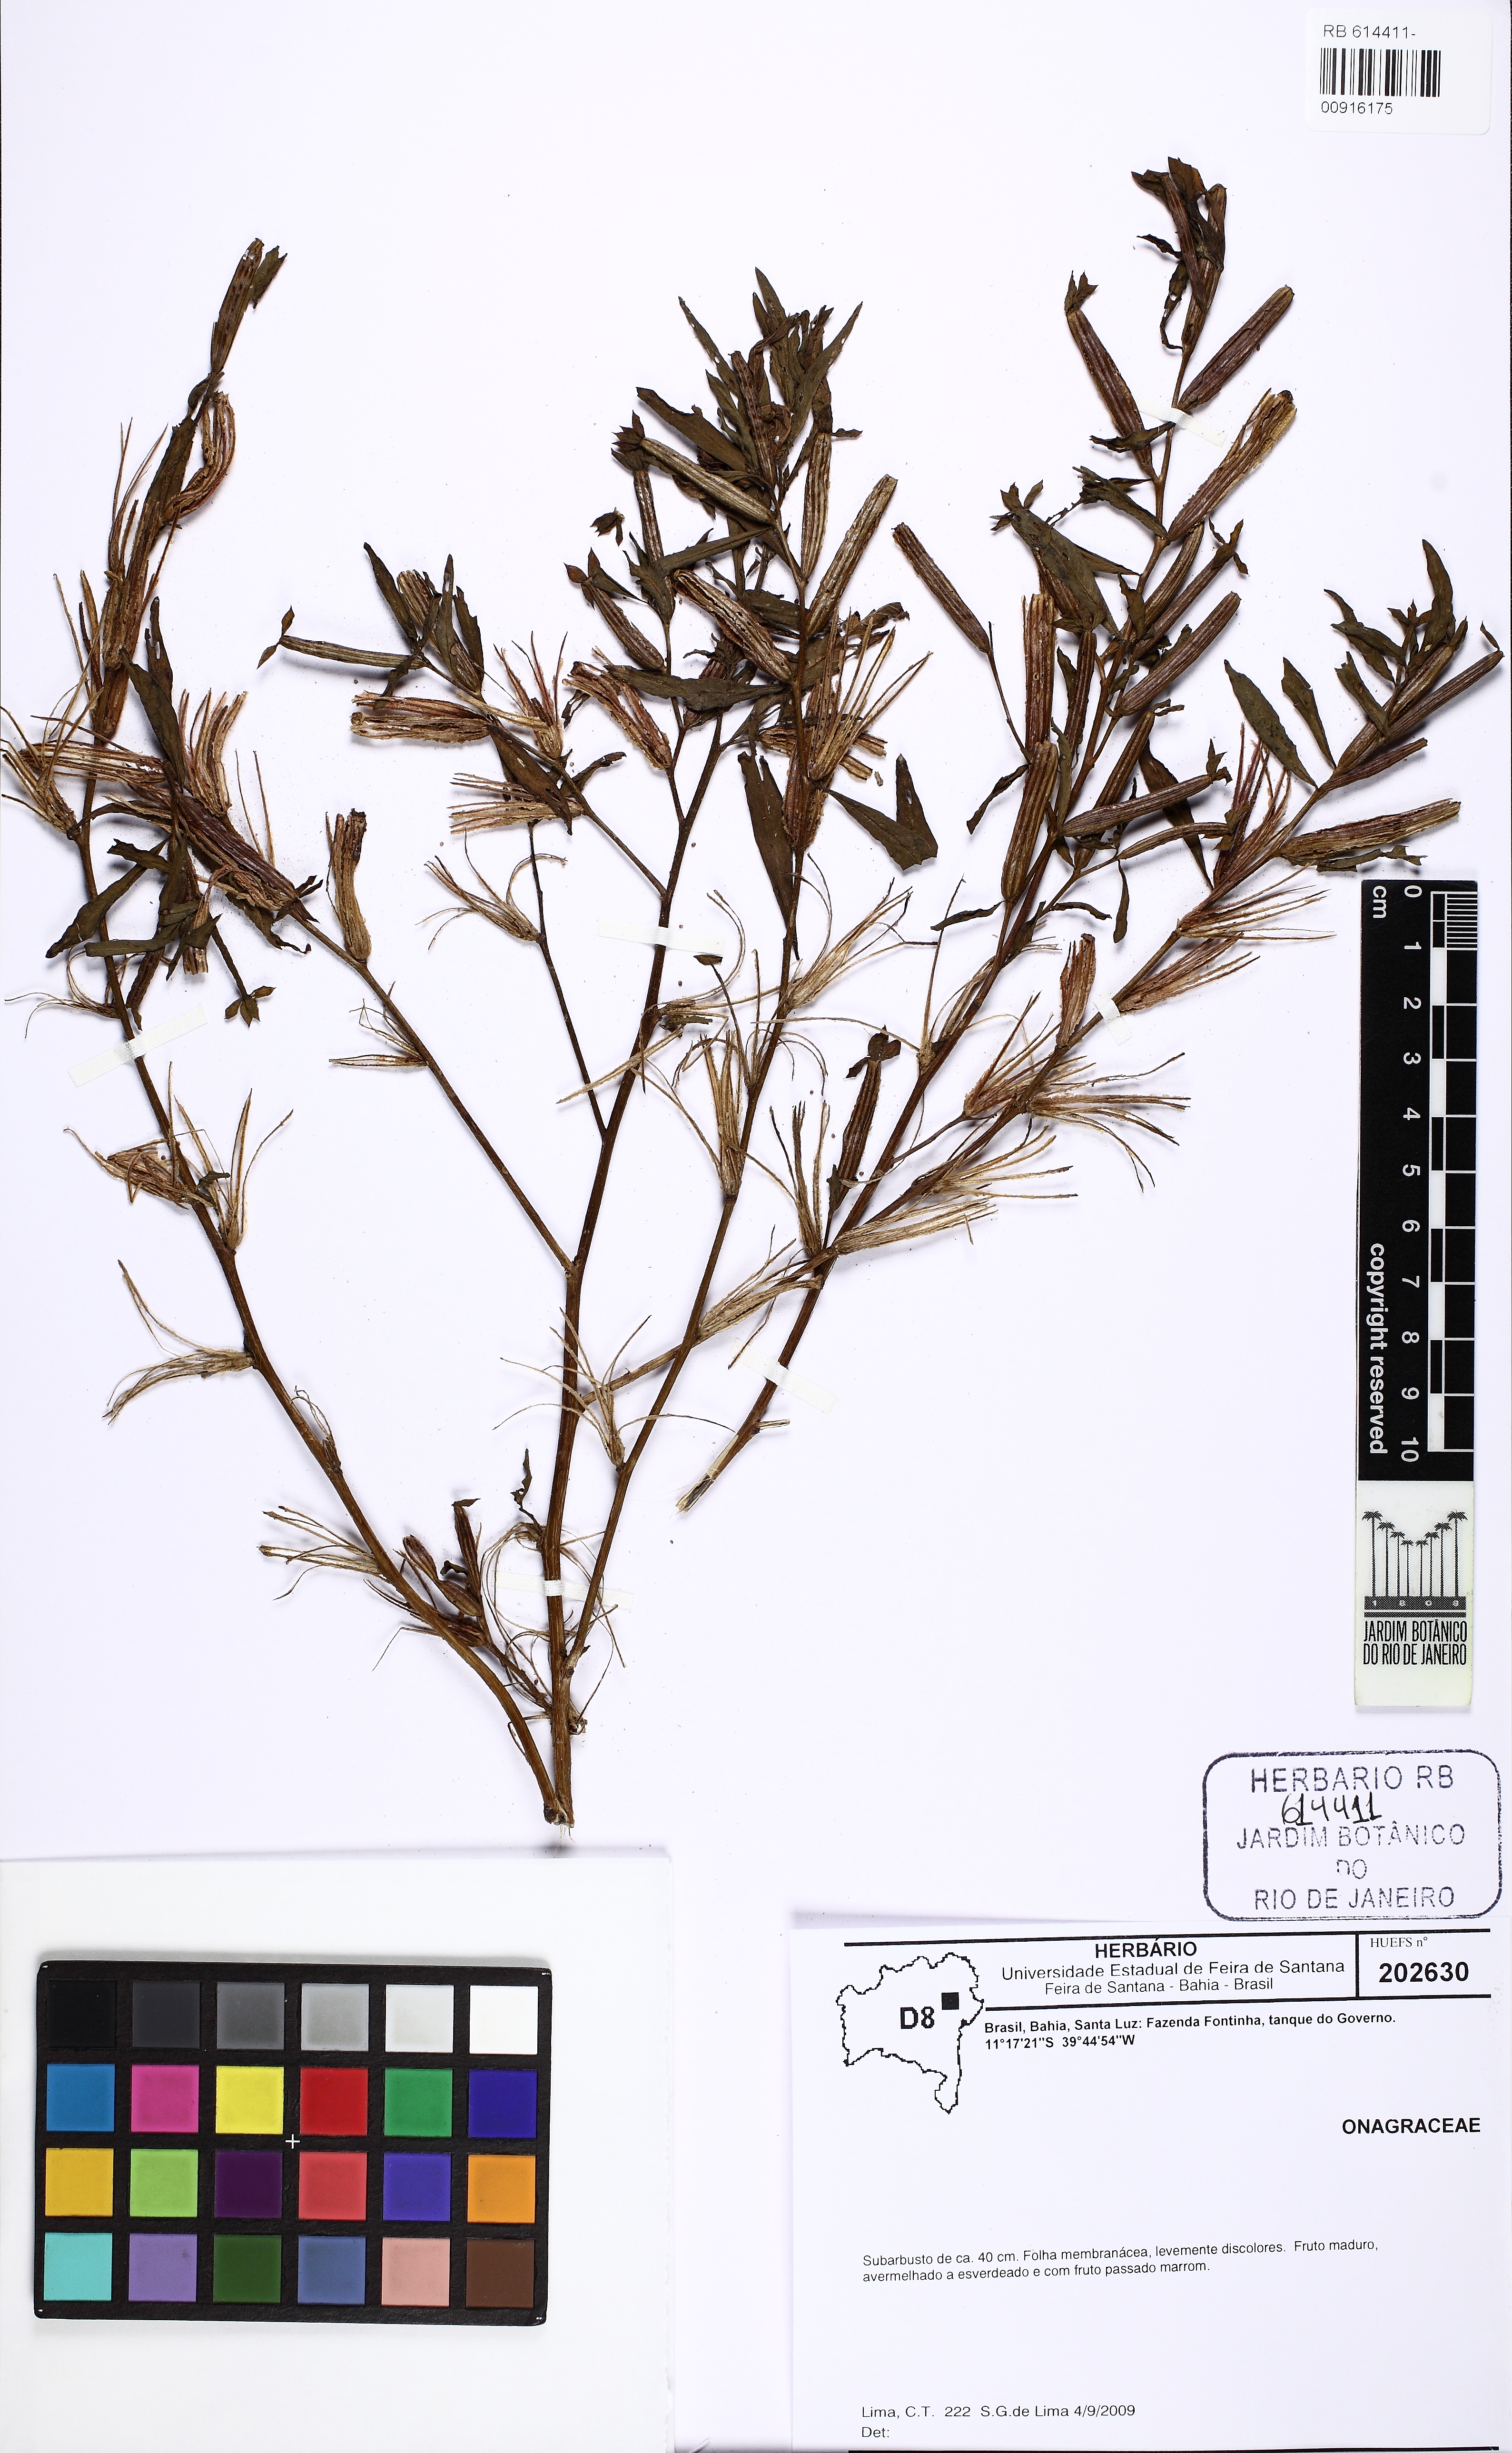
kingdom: Plantae
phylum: Tracheophyta
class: Magnoliopsida
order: Myrtales
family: Onagraceae
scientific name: Onagraceae
